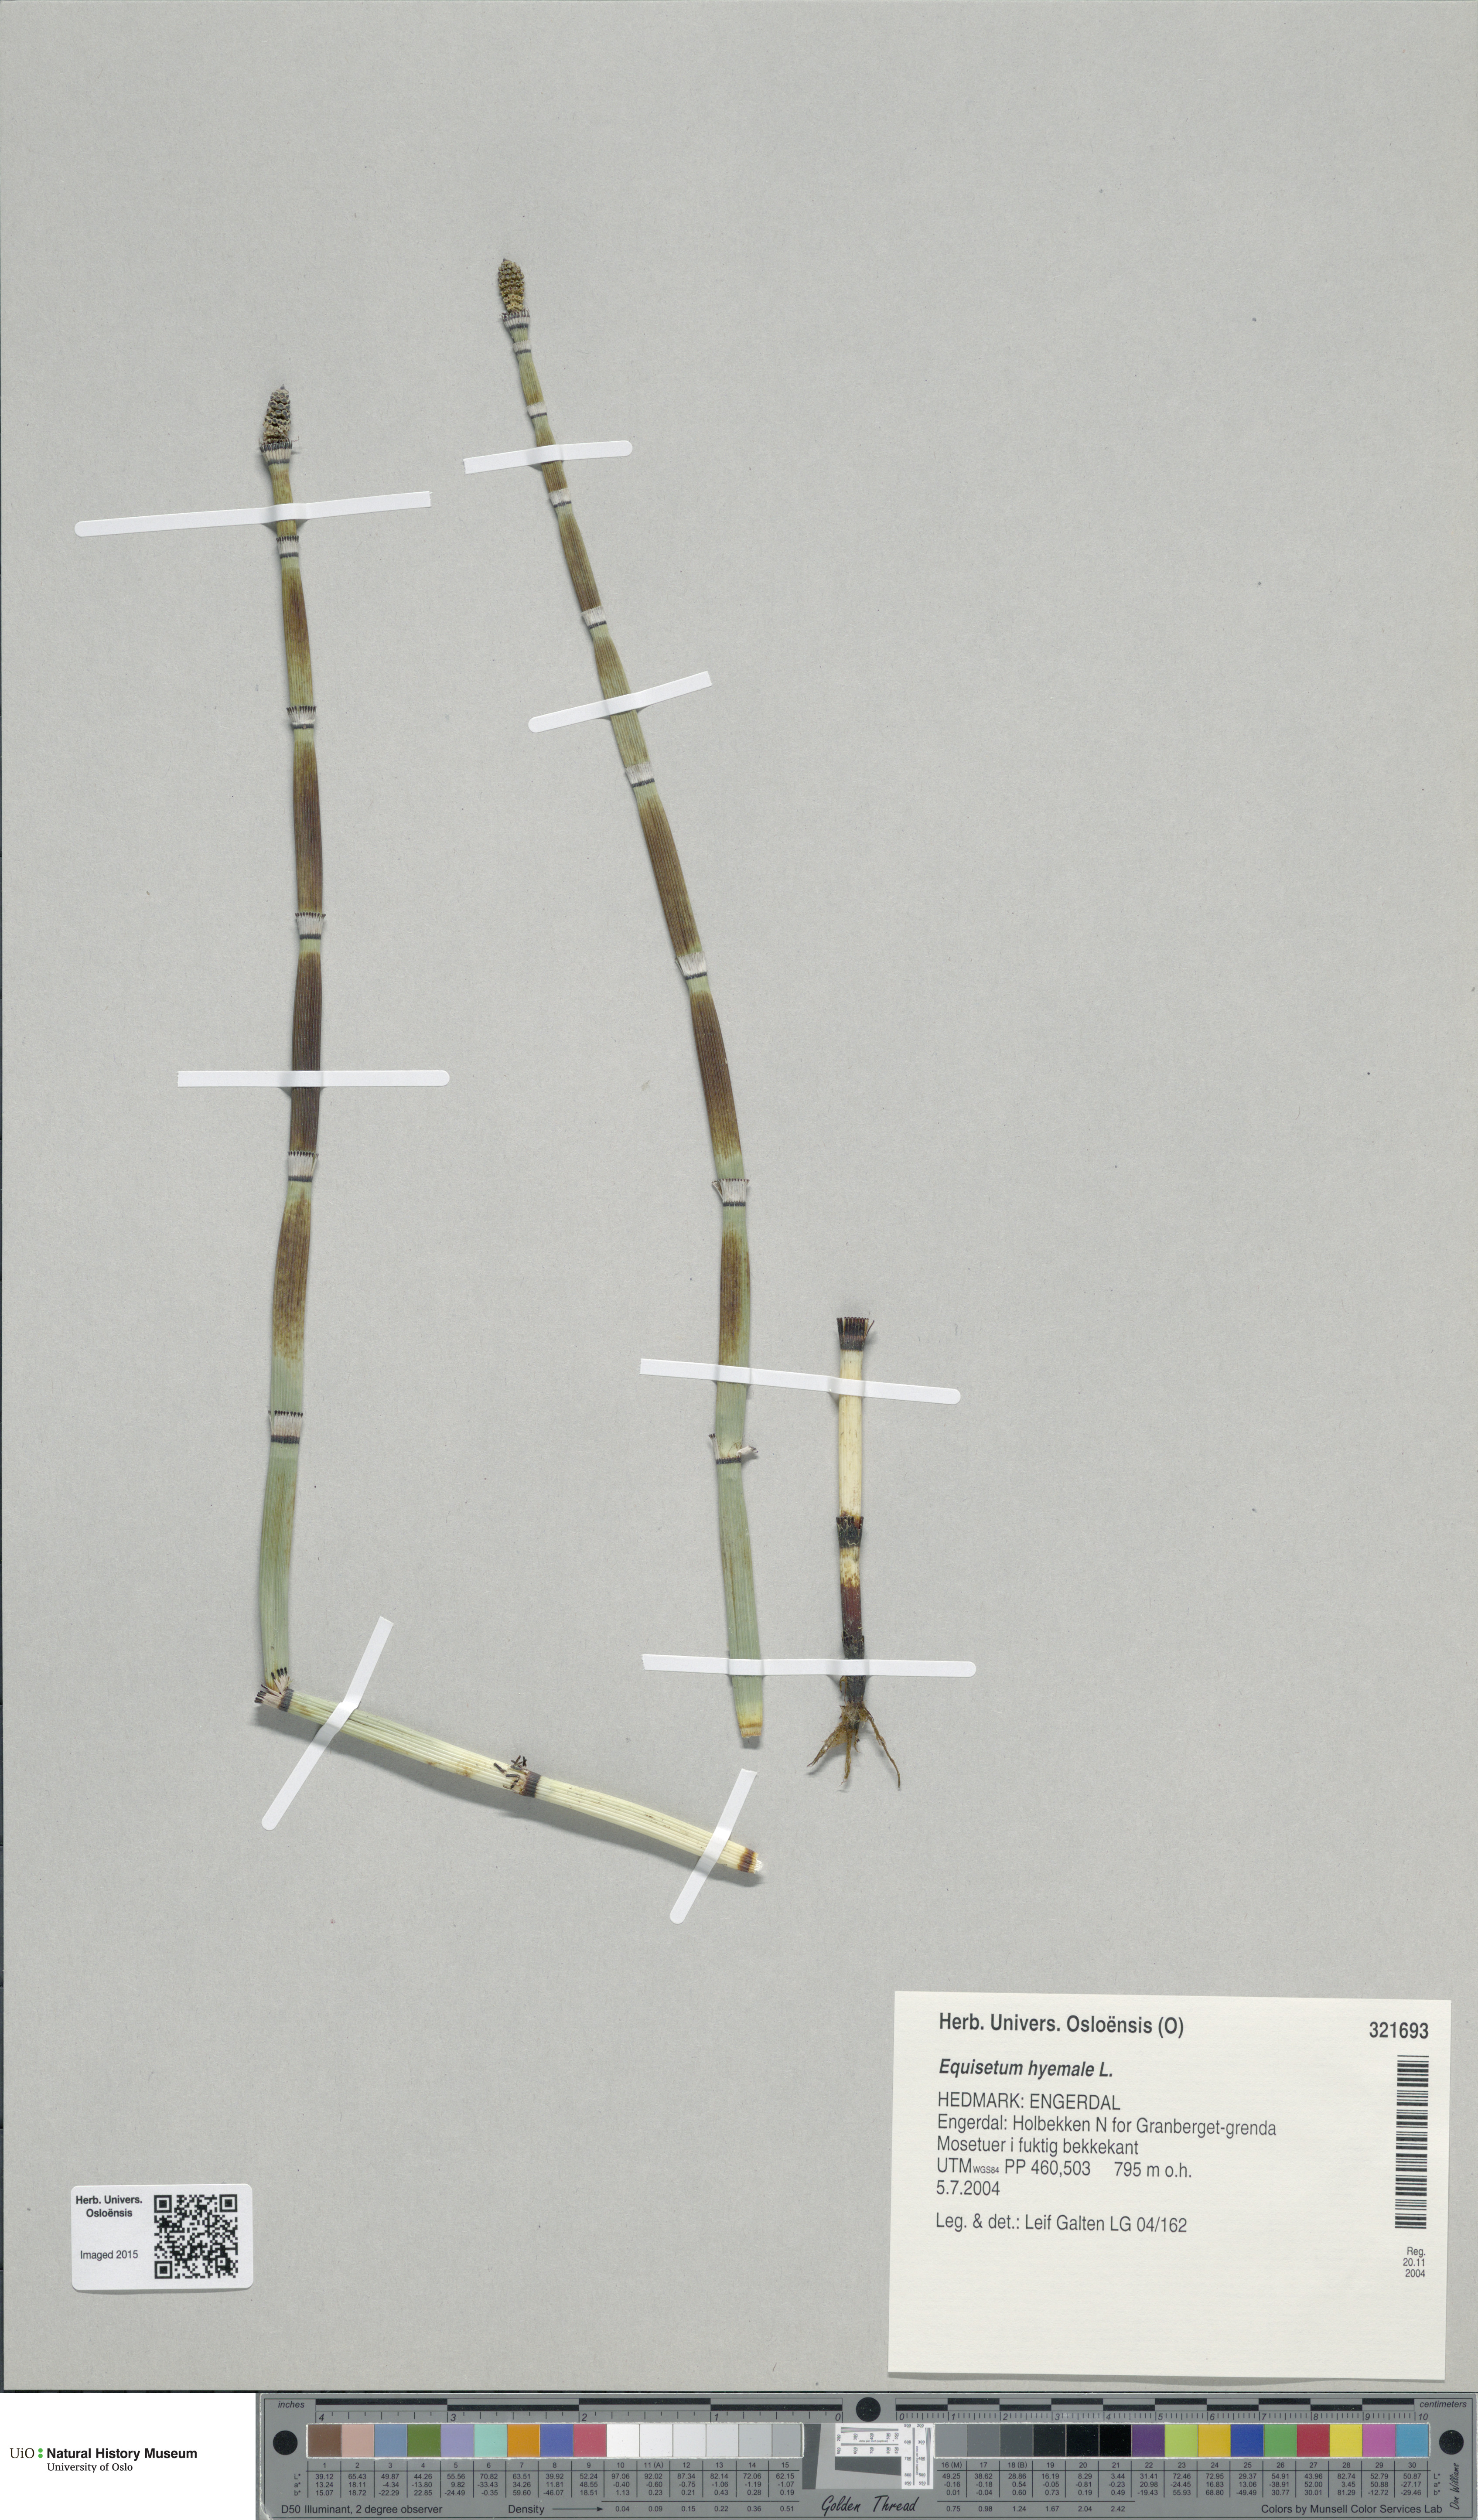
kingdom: Plantae
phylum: Tracheophyta
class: Polypodiopsida
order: Equisetales
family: Equisetaceae
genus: Equisetum
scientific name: Equisetum hyemale
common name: Rough horsetail
